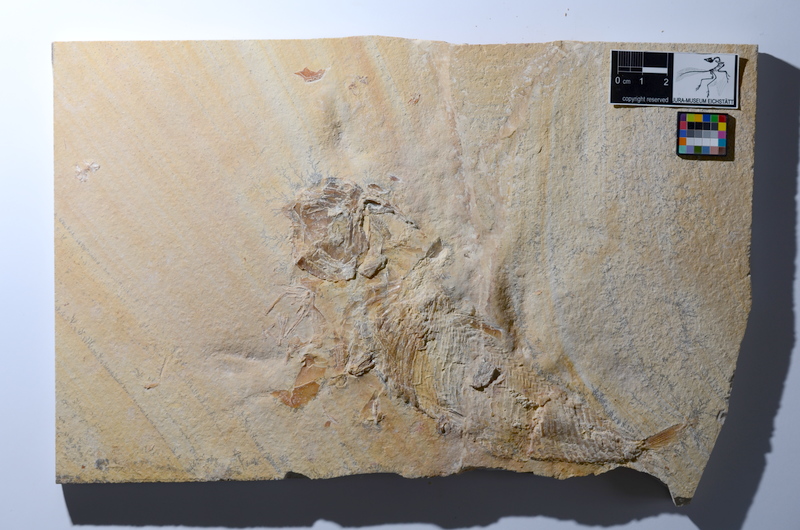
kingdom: Animalia
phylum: Chordata
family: Ankylophoridae
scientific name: Ankylophoridae
